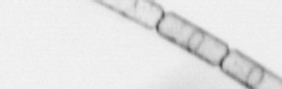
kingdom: Chromista
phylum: Ochrophyta
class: Bacillariophyceae
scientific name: Bacillariophyceae
